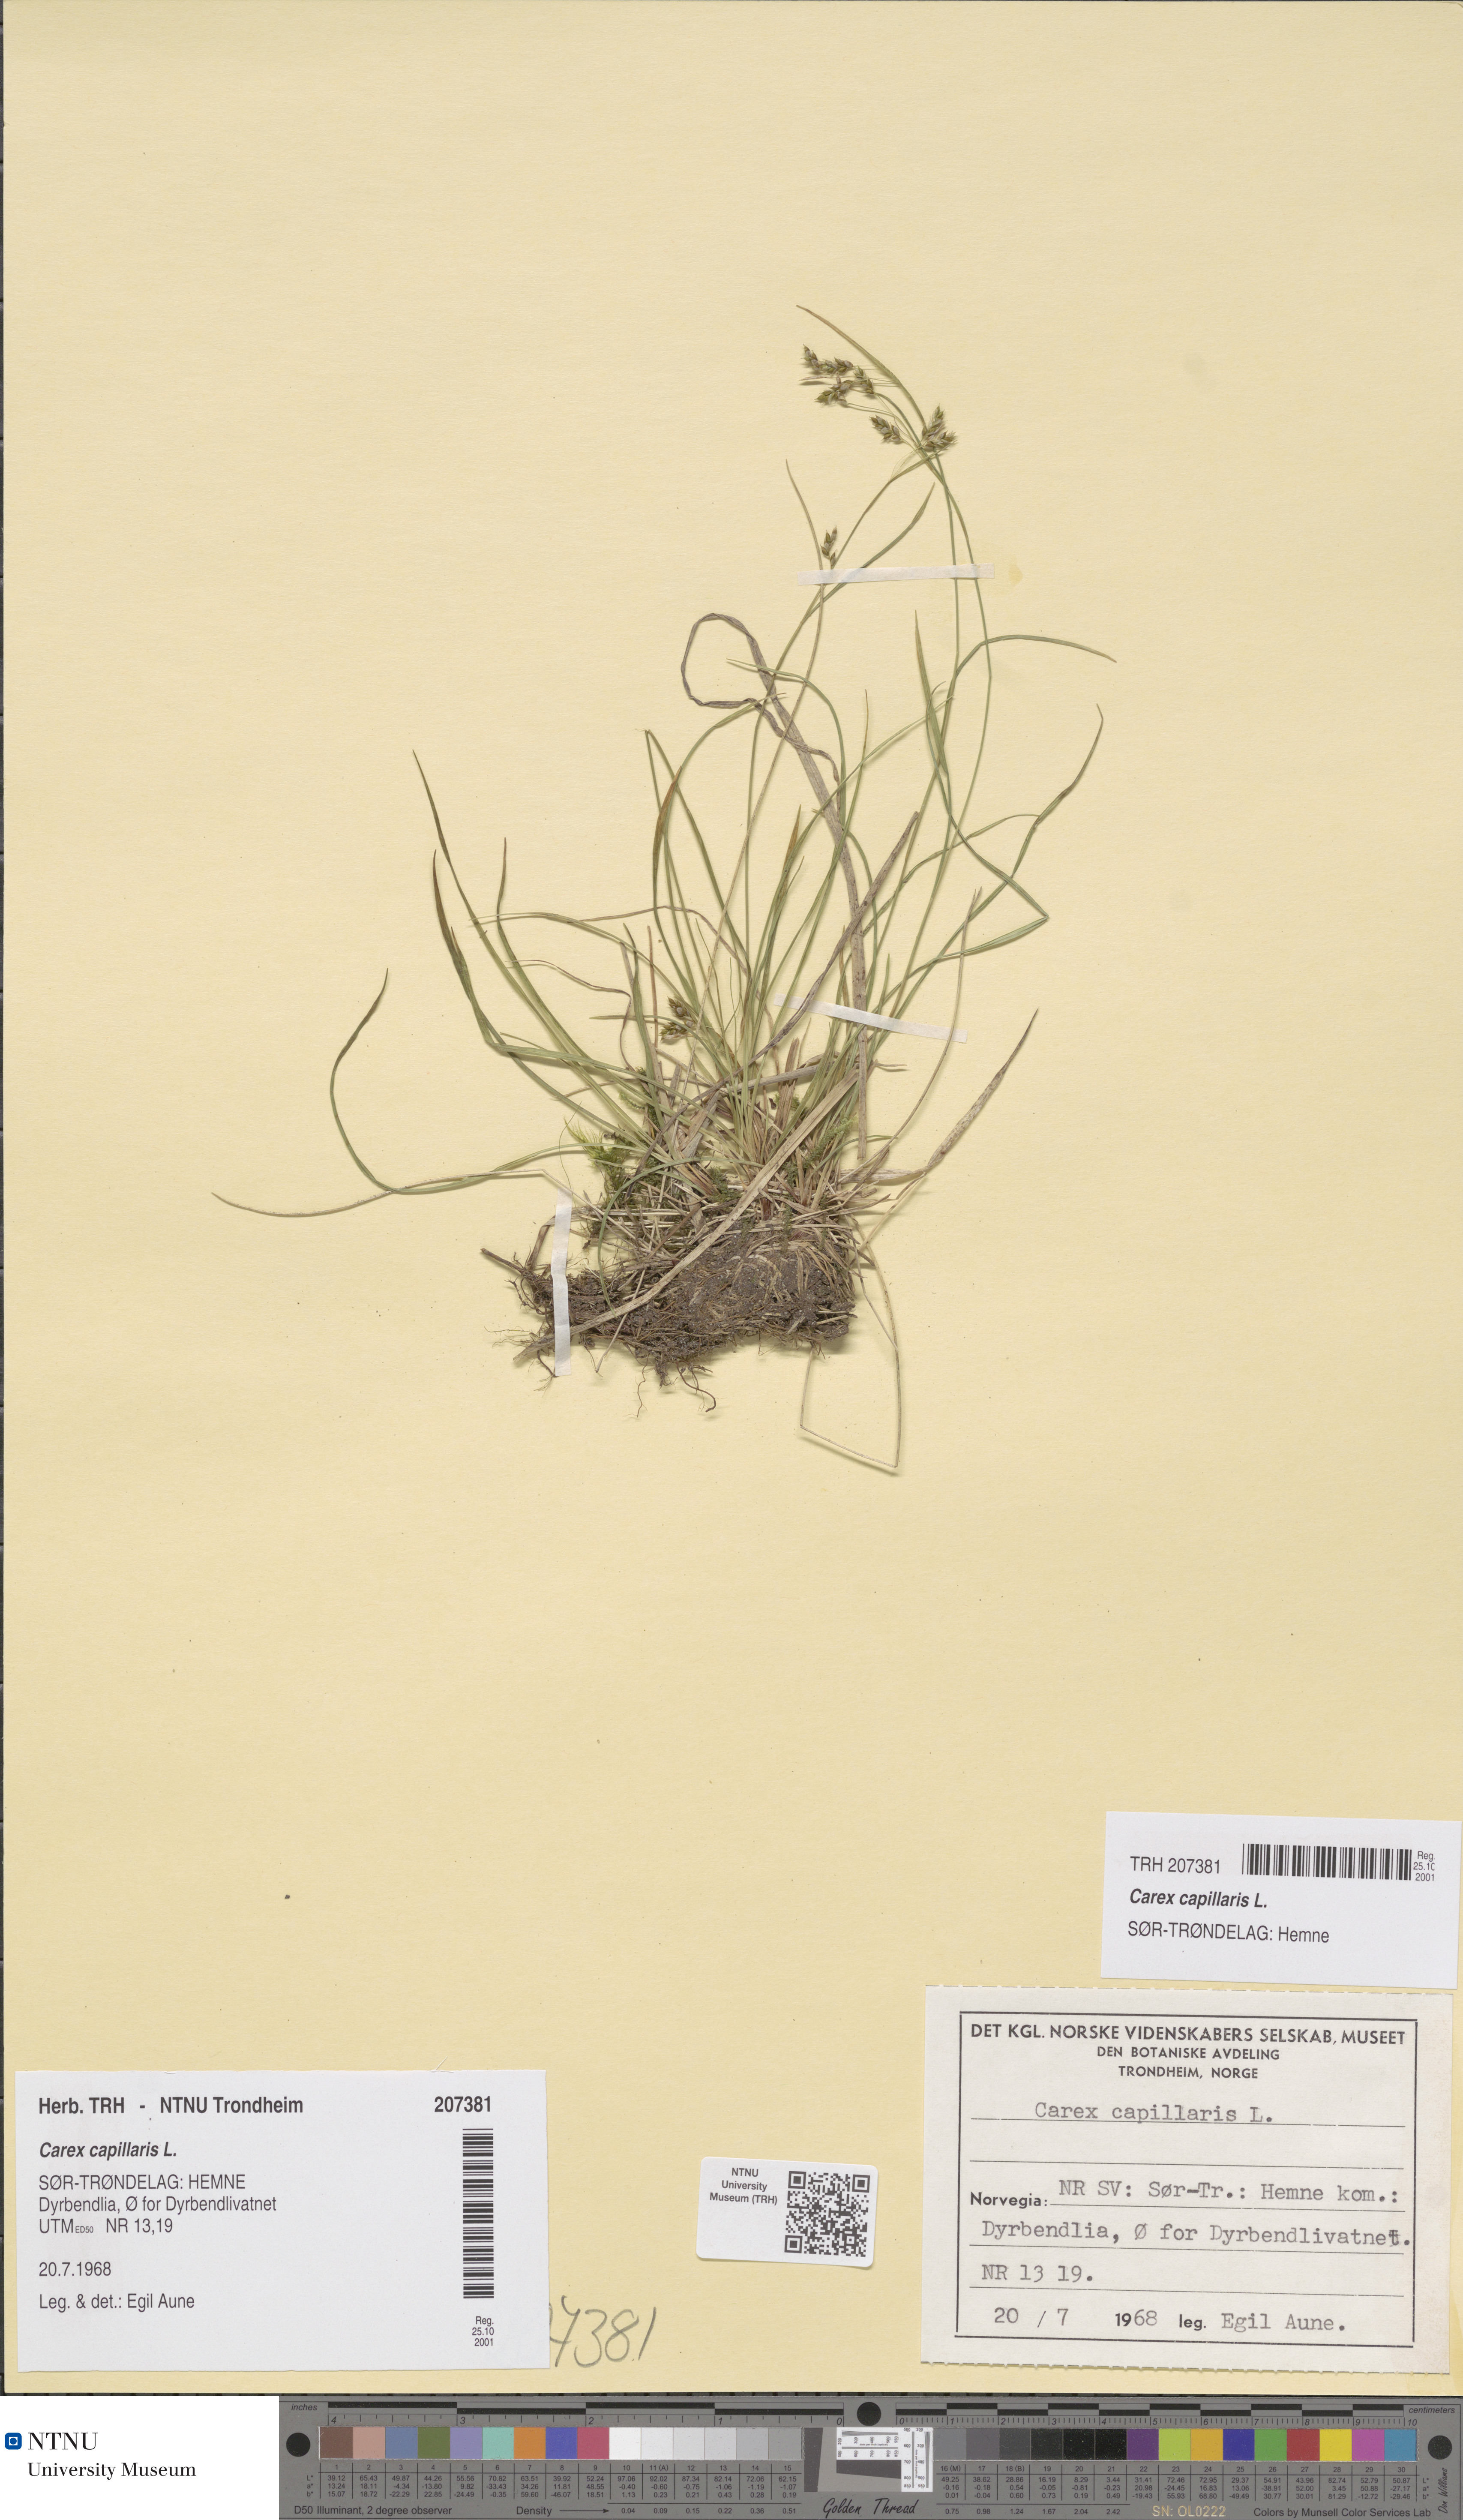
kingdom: Plantae
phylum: Tracheophyta
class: Liliopsida
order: Poales
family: Cyperaceae
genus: Carex
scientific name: Carex capillaris
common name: Hair sedge
